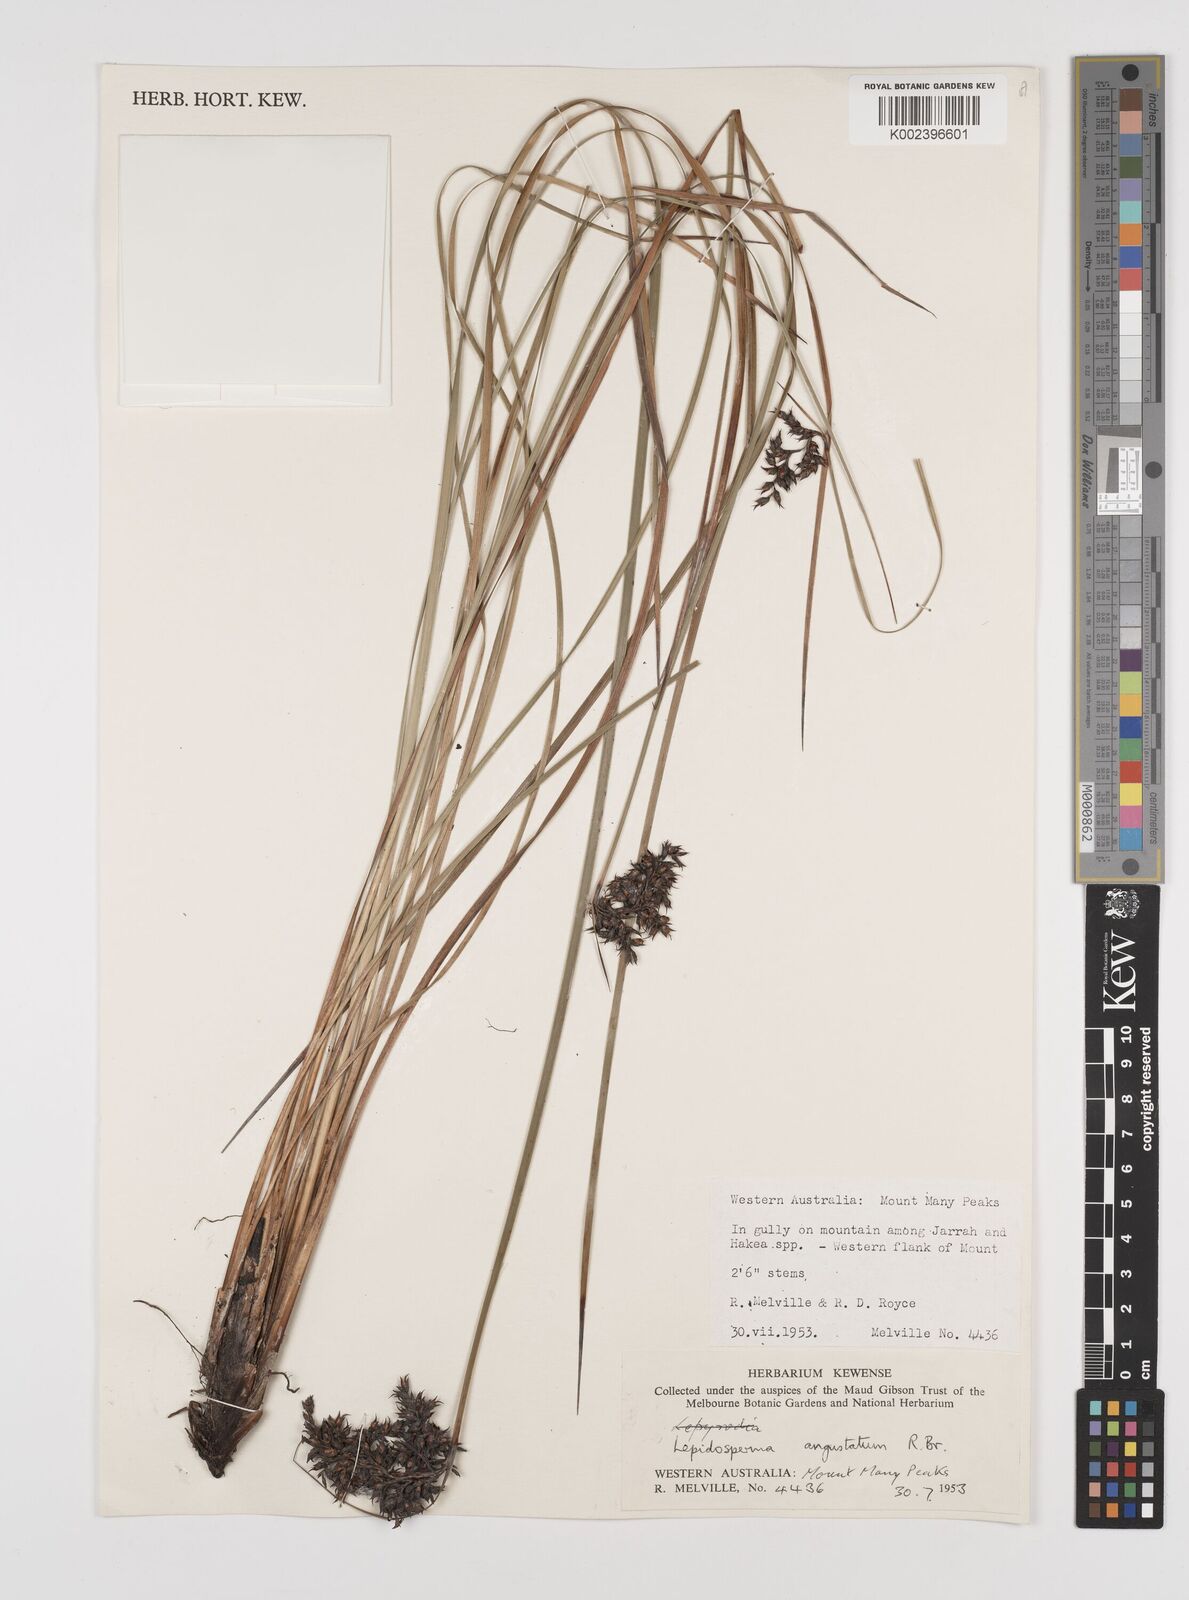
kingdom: Plantae
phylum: Tracheophyta
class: Liliopsida
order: Poales
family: Cyperaceae
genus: Lepidosperma
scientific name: Lepidosperma angustatum
